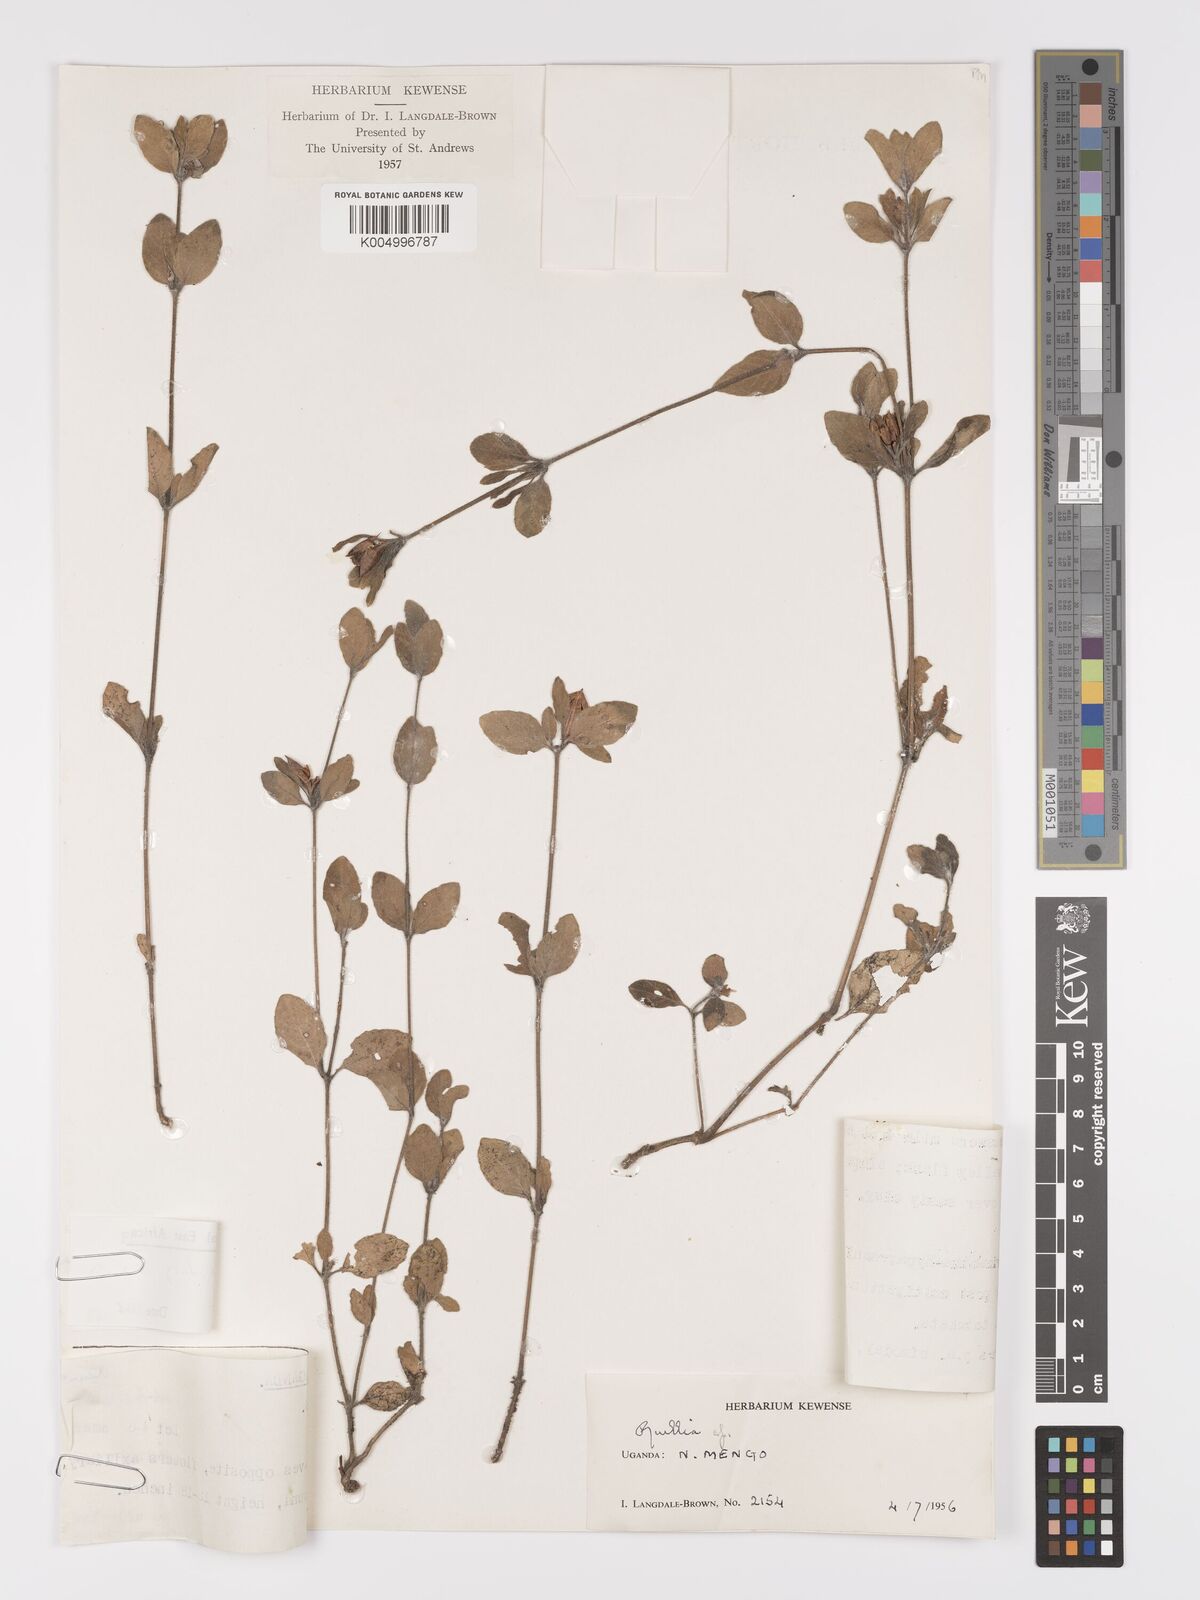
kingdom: Plantae
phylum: Tracheophyta
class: Magnoliopsida
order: Lamiales
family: Acanthaceae
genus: Ruellia
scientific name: Ruellia patula
